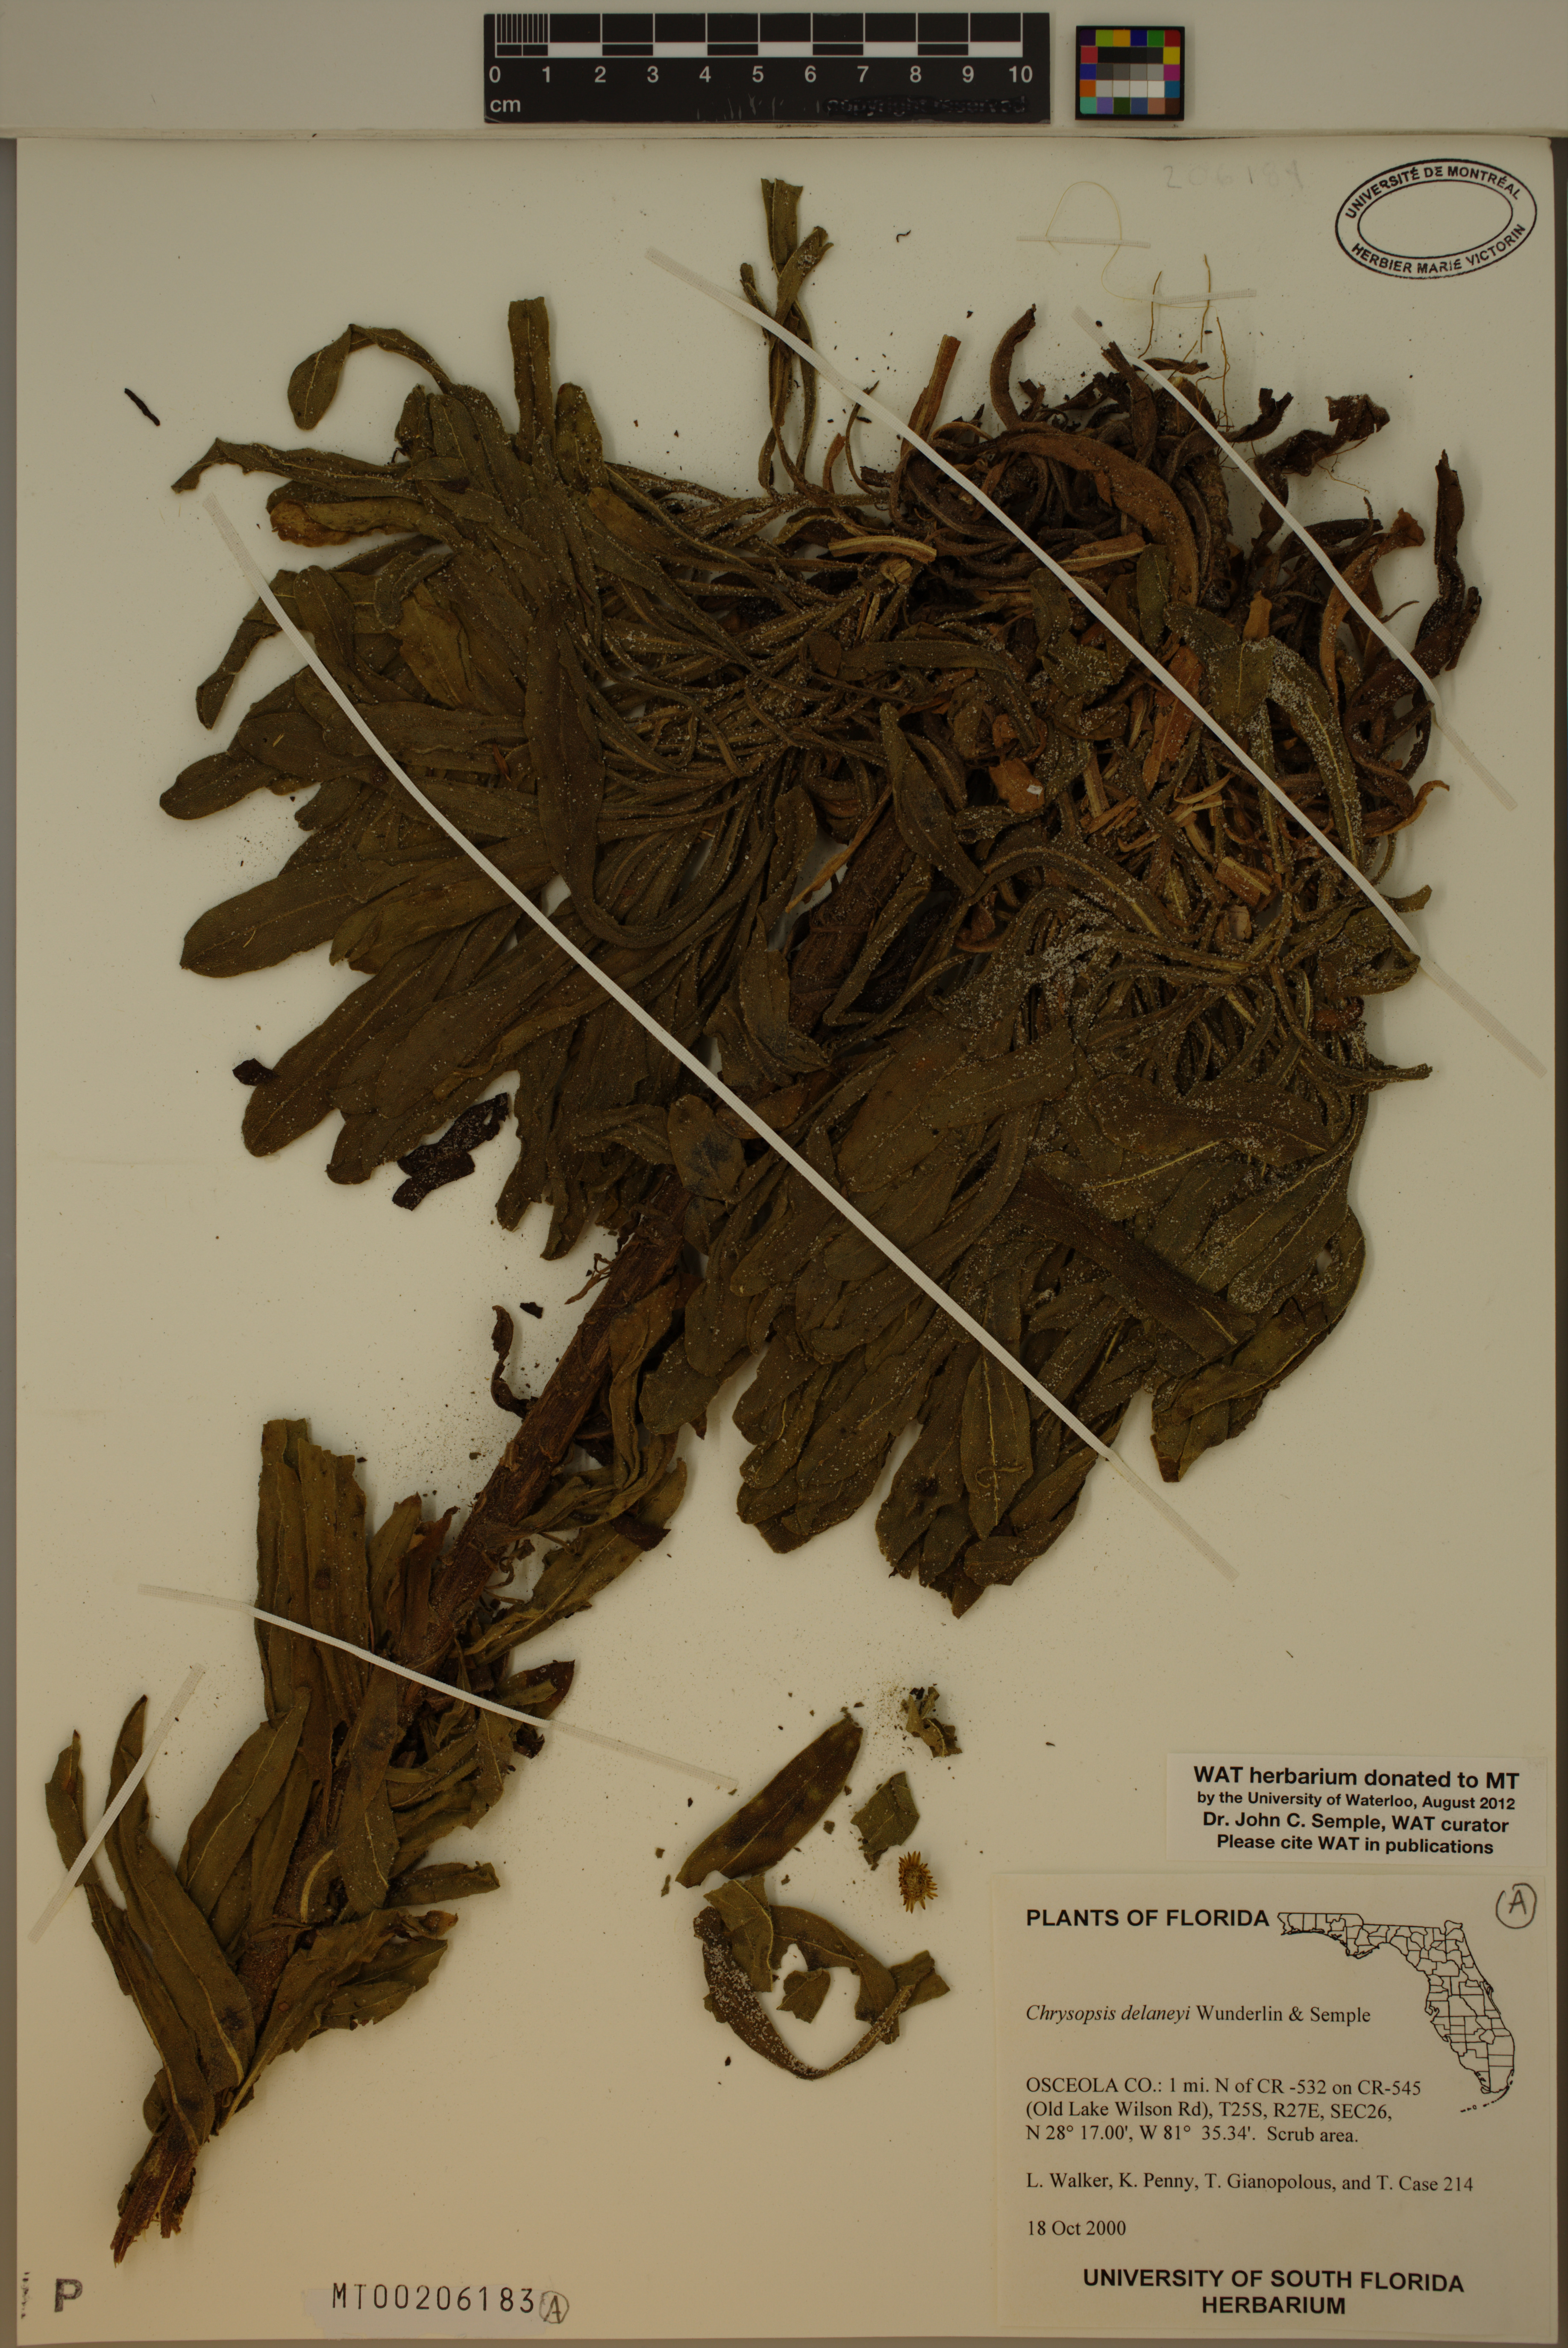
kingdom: Plantae
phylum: Tracheophyta
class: Magnoliopsida
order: Asterales
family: Asteraceae
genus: Chrysopsis
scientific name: Chrysopsis delaneyi
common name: Delaney's goldenaster
